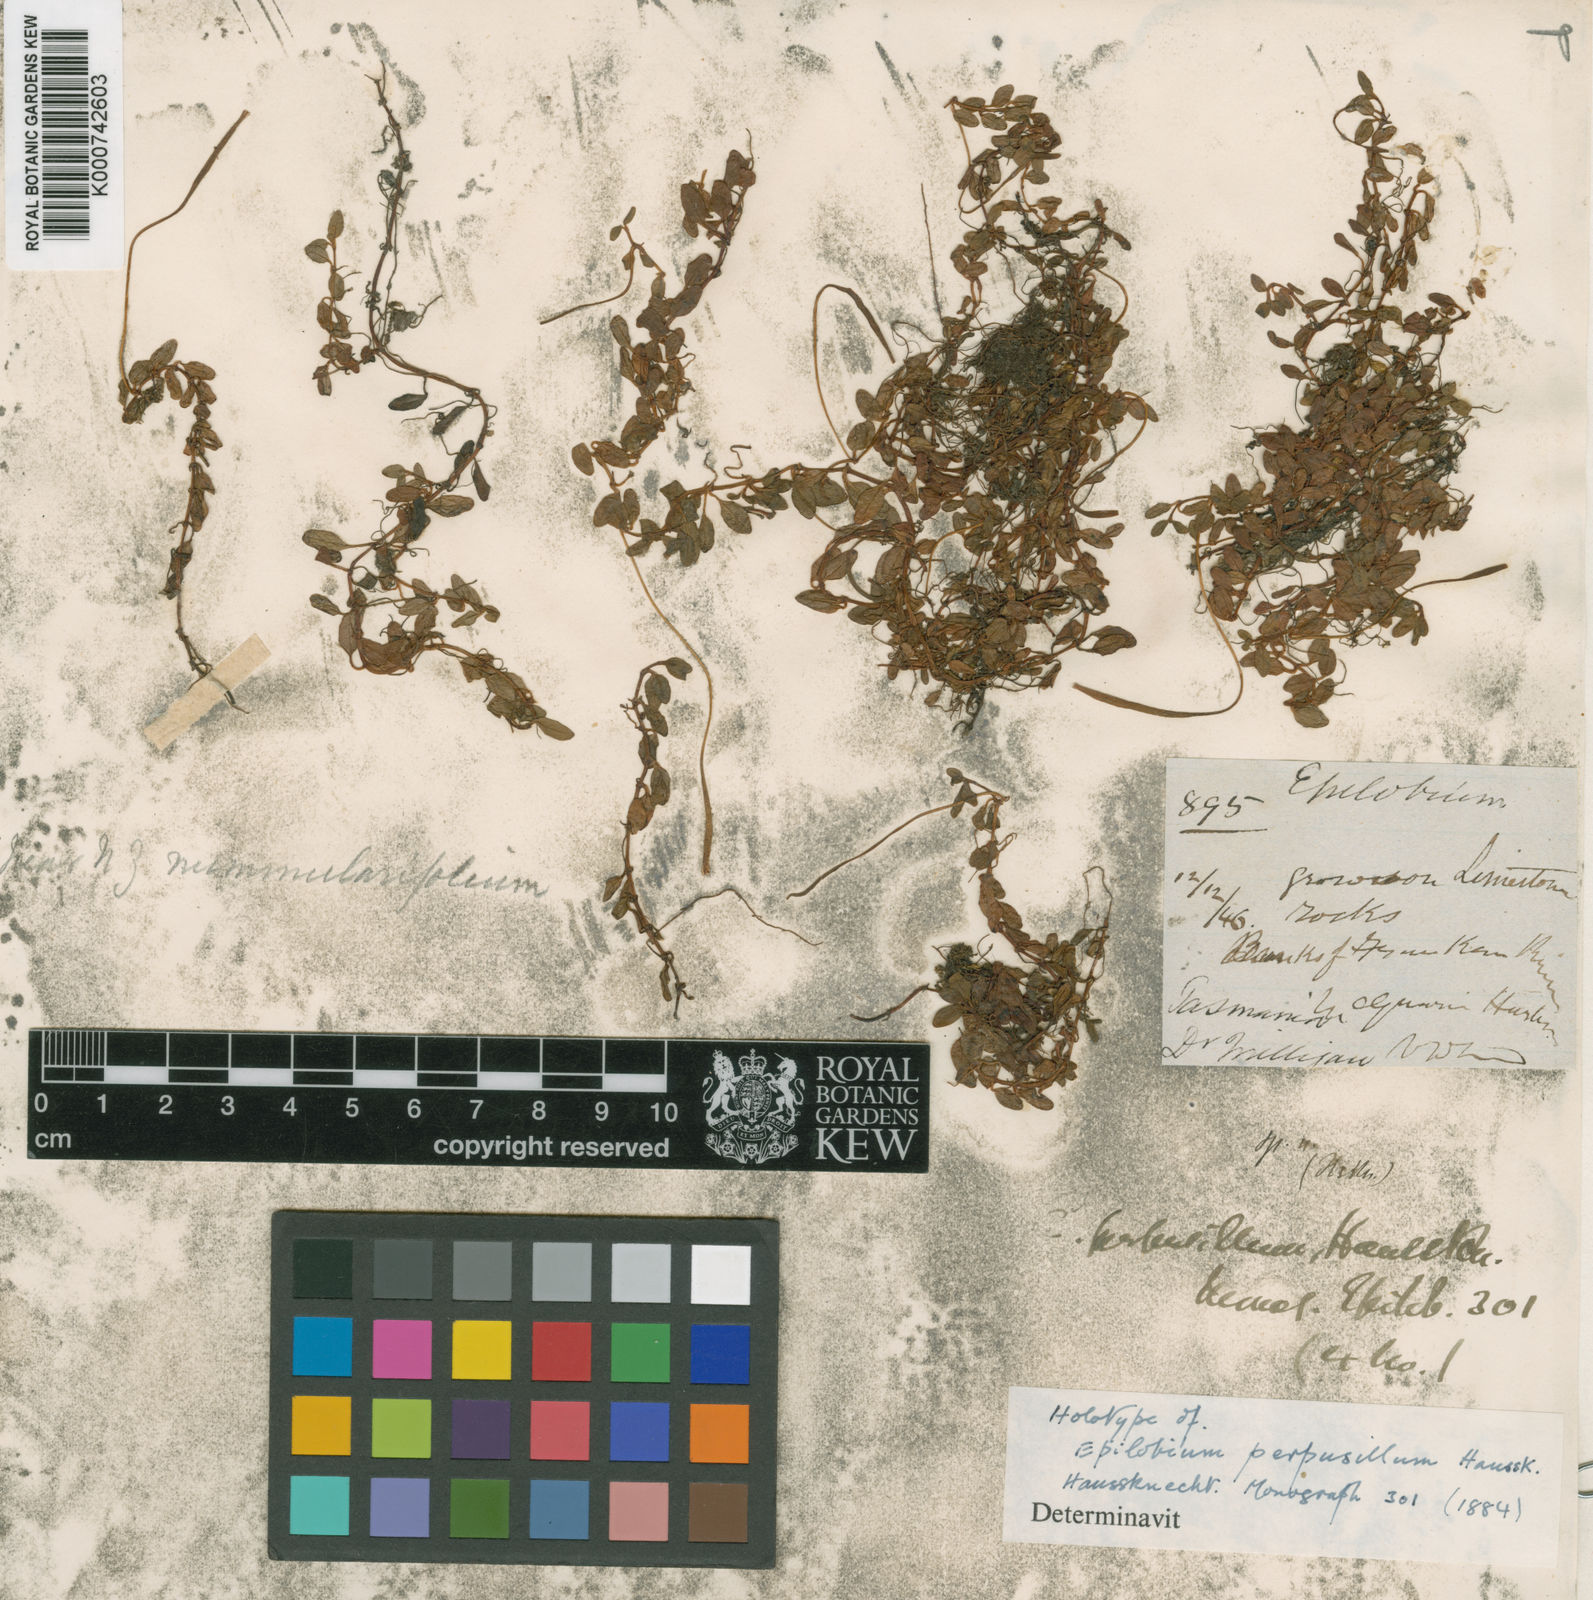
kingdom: Plantae
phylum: Tracheophyta
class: Magnoliopsida
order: Myrtales
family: Onagraceae
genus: Epilobium
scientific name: Epilobium tasmanicum
